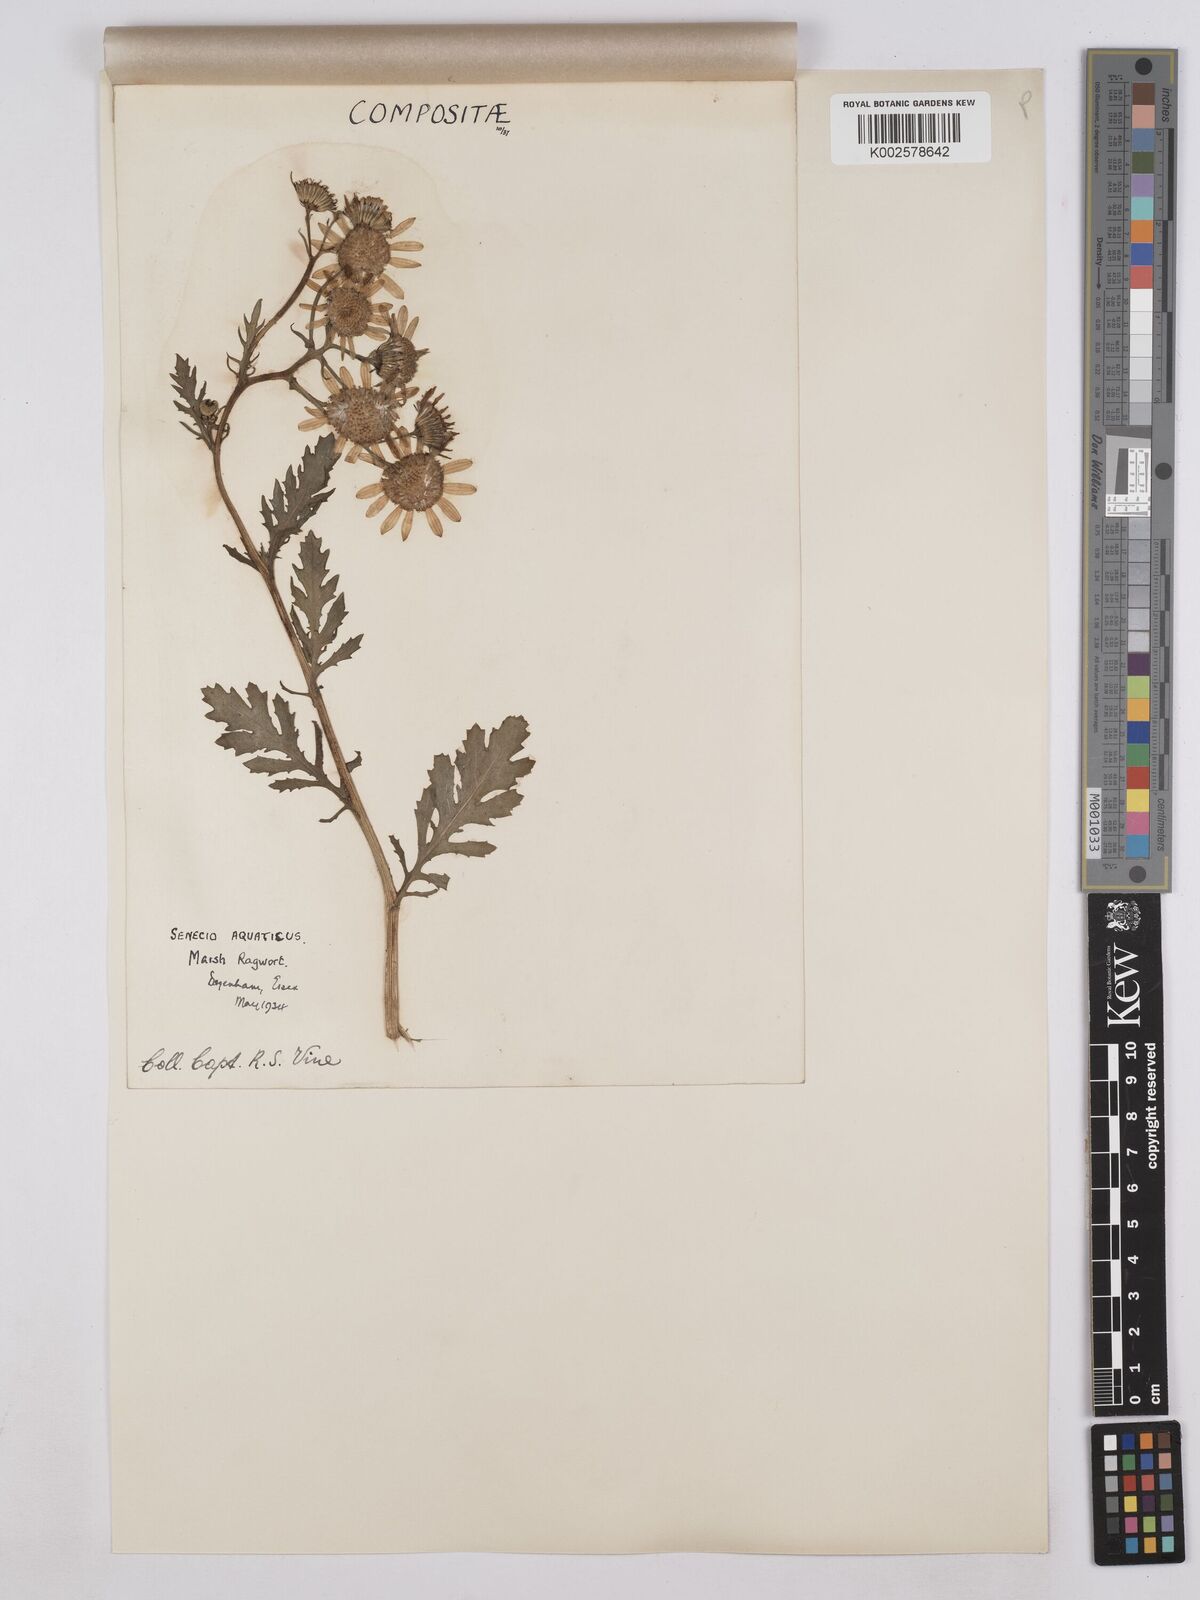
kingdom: Plantae
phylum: Tracheophyta
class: Magnoliopsida
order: Asterales
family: Asteraceae
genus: Jacobaea
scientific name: Jacobaea aquatica
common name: Water ragwort
